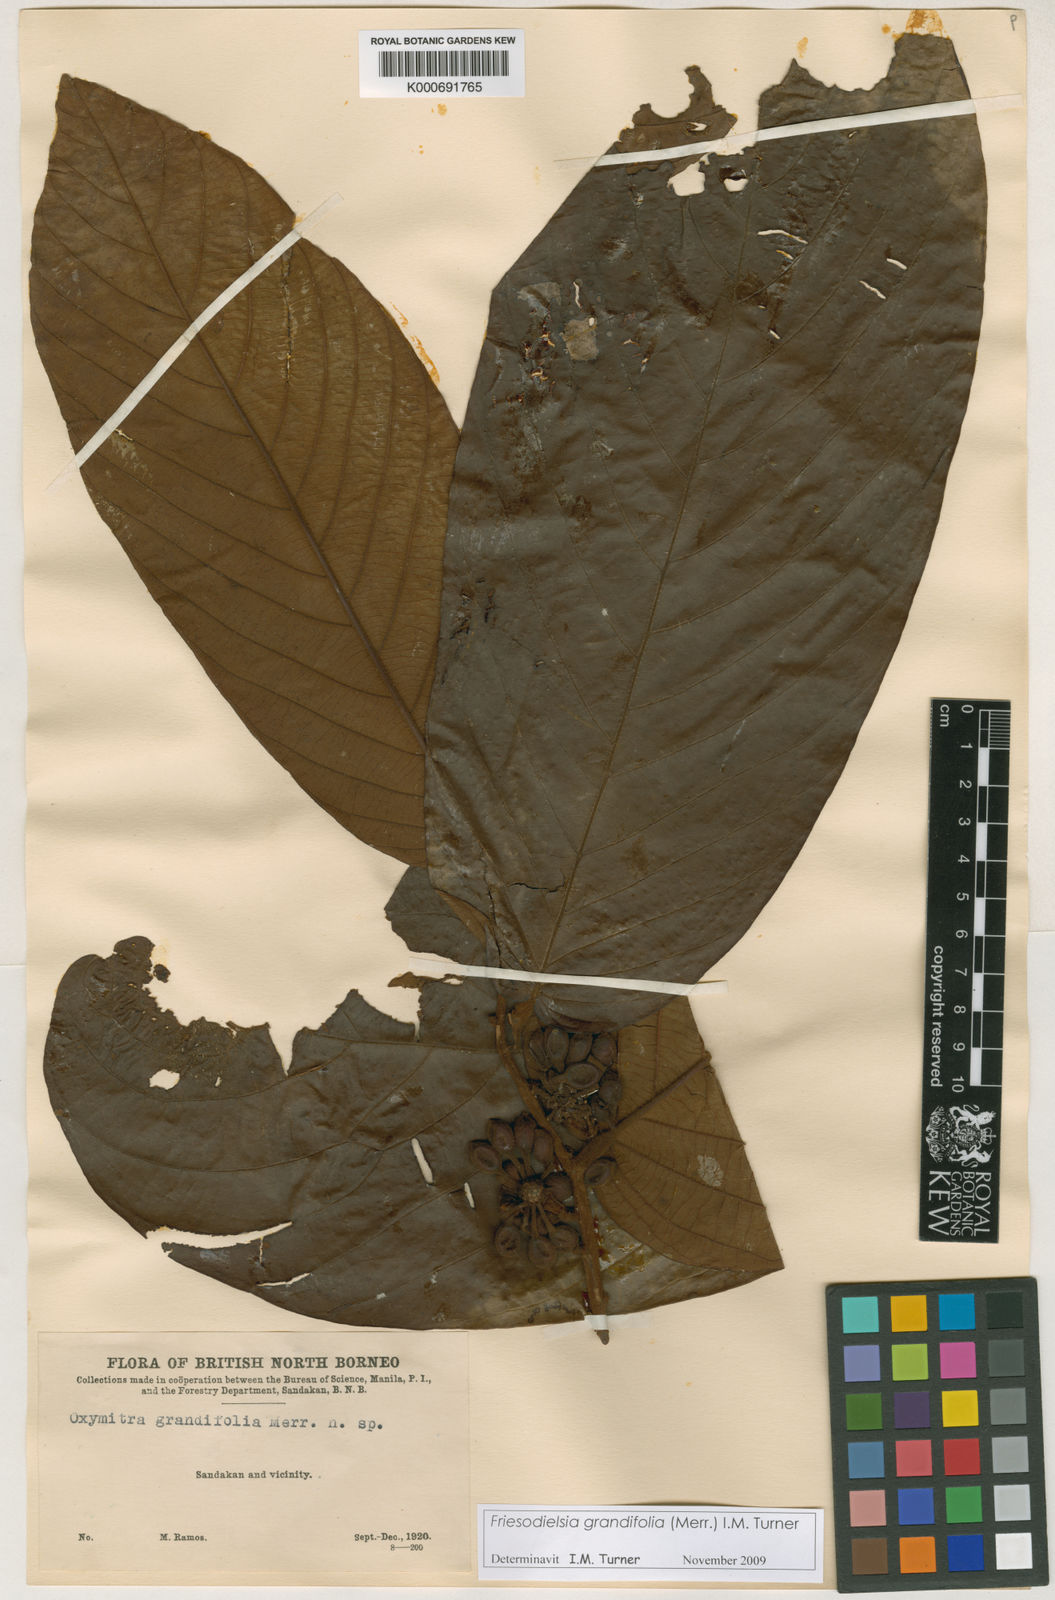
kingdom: Plantae
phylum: Tracheophyta
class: Magnoliopsida
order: Magnoliales
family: Annonaceae
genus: Friesodielsia
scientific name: Friesodielsia grandifolia
